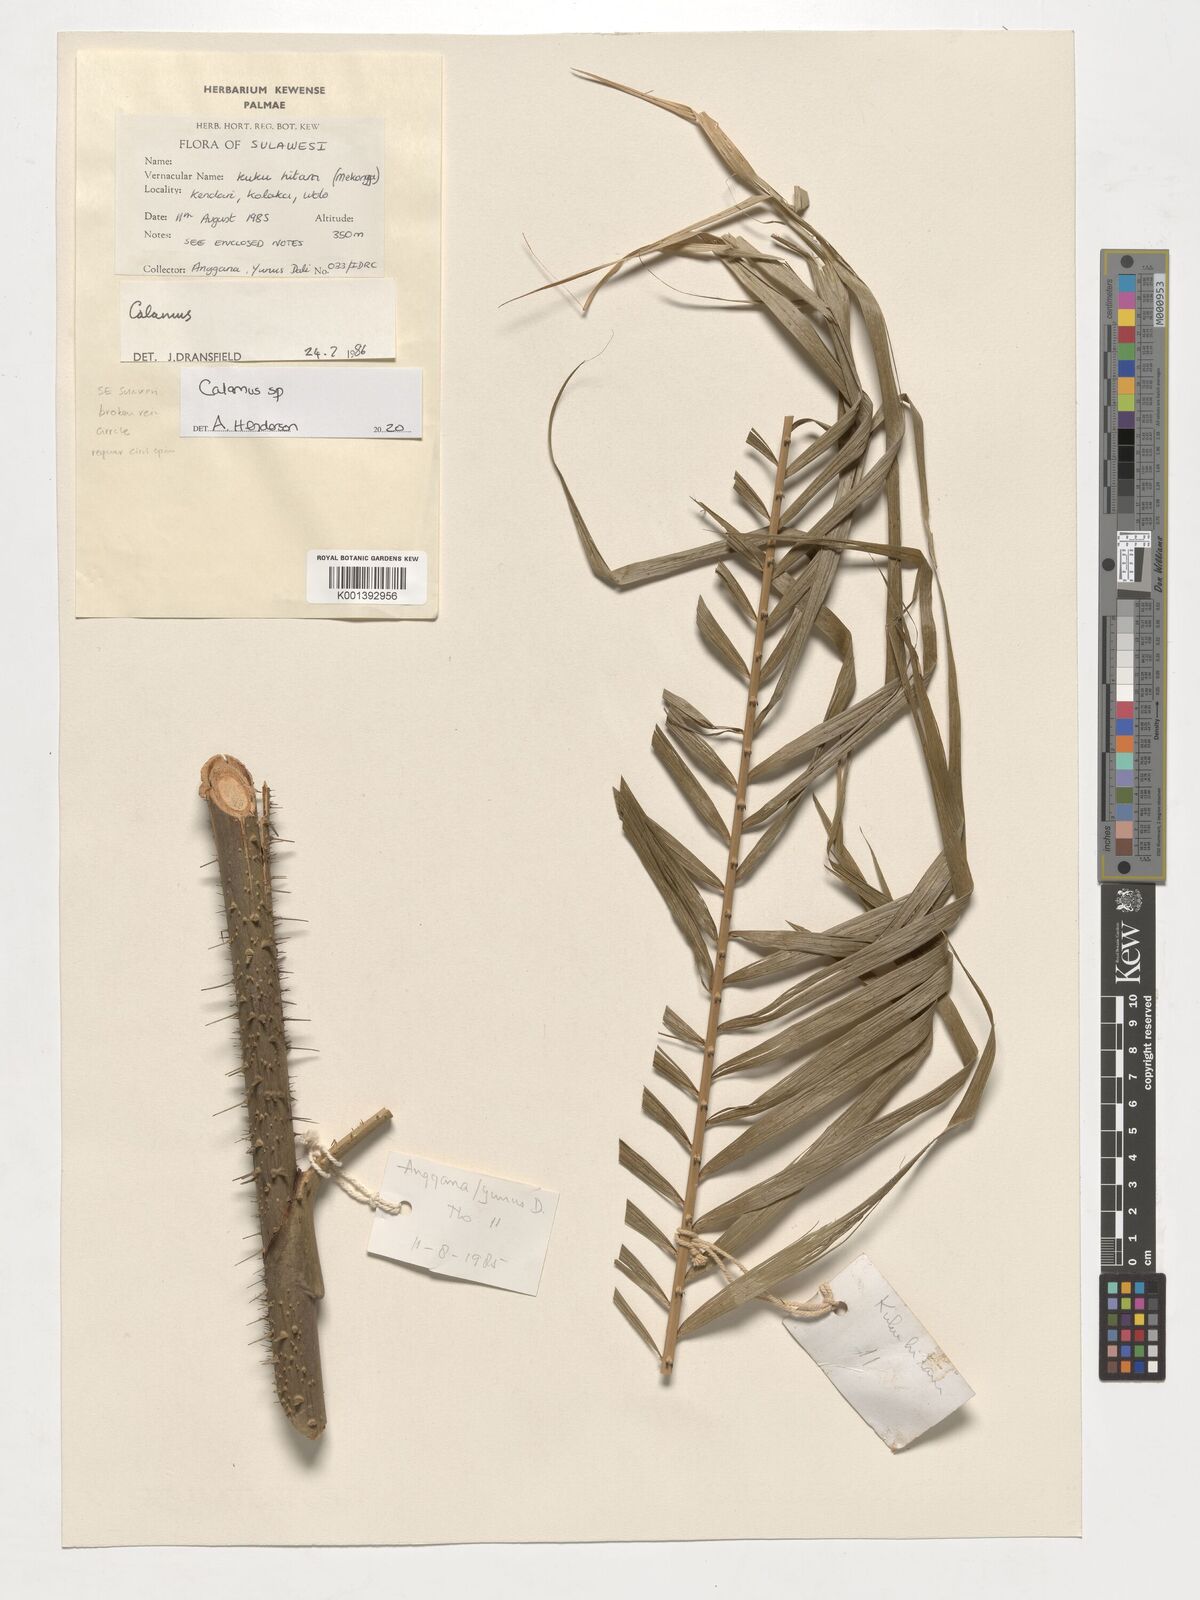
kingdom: Plantae
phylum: Tracheophyta
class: Liliopsida
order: Arecales
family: Arecaceae
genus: Calamus
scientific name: Calamus
